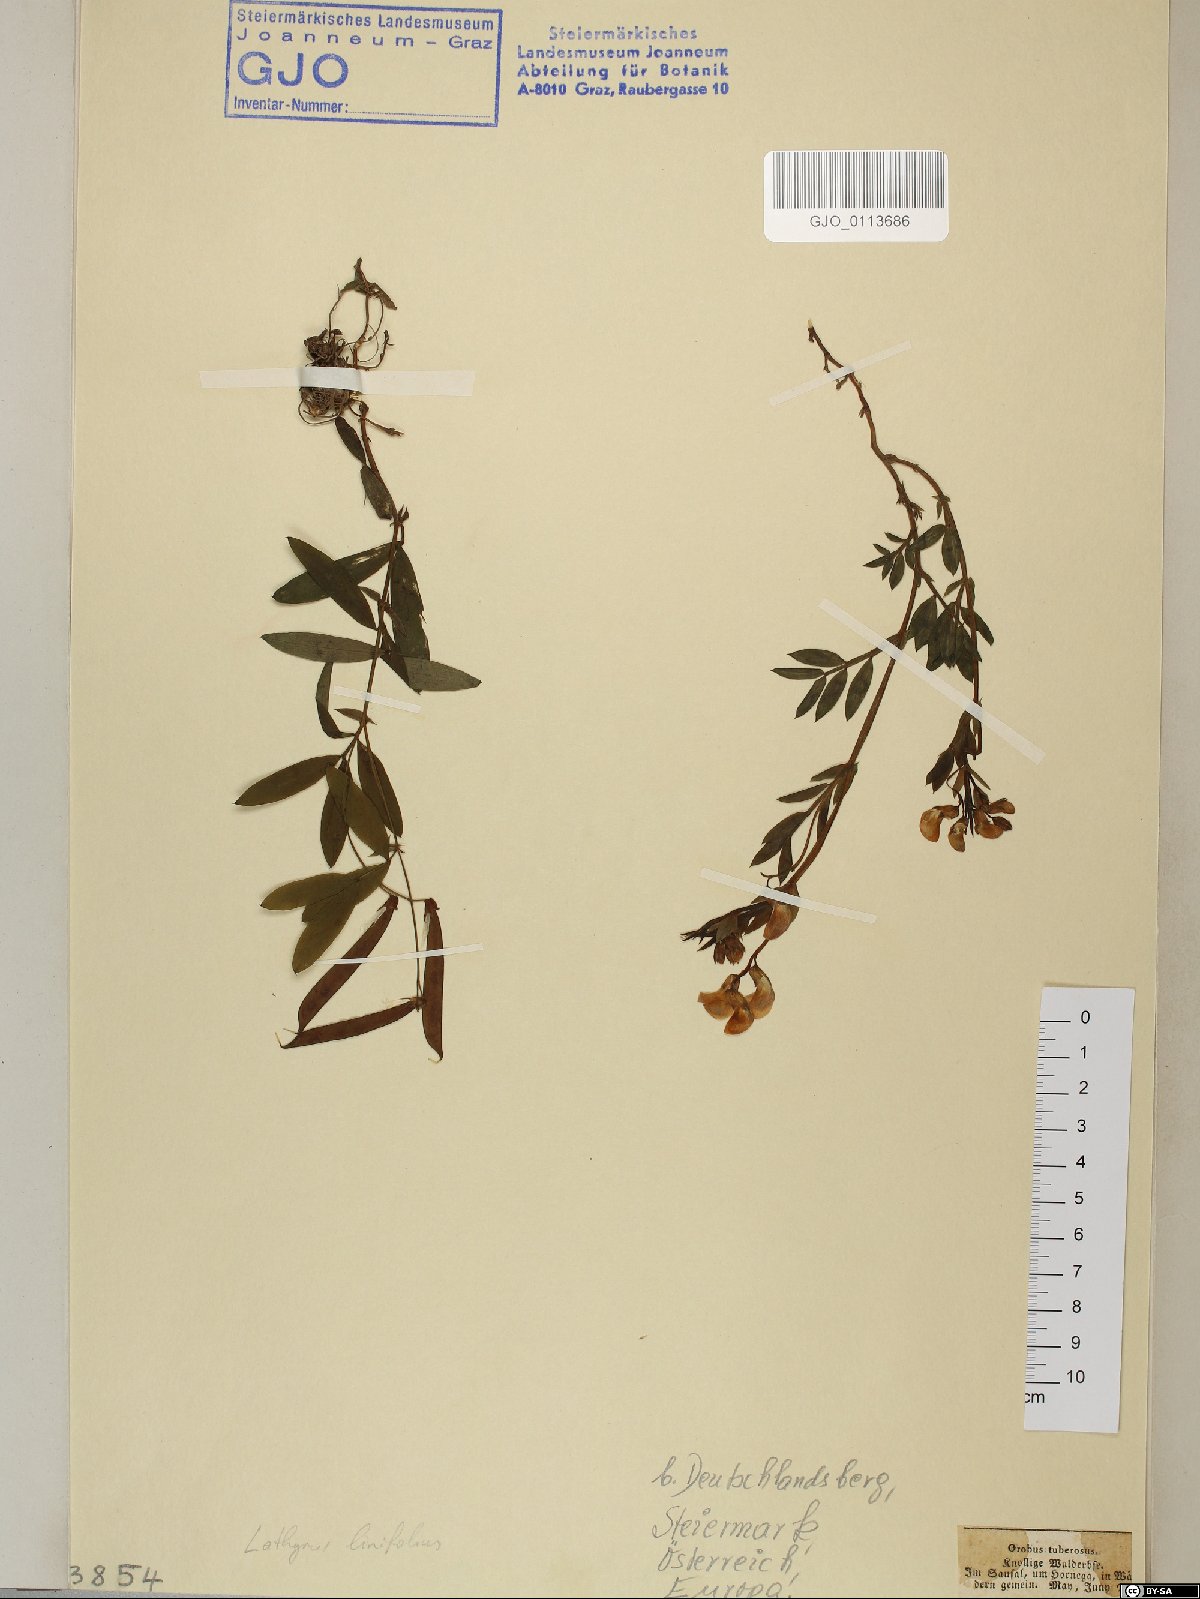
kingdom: Plantae
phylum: Tracheophyta
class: Magnoliopsida
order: Fabales
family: Fabaceae
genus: Lathyrus
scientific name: Lathyrus linifolius
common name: Bitter-vetch
